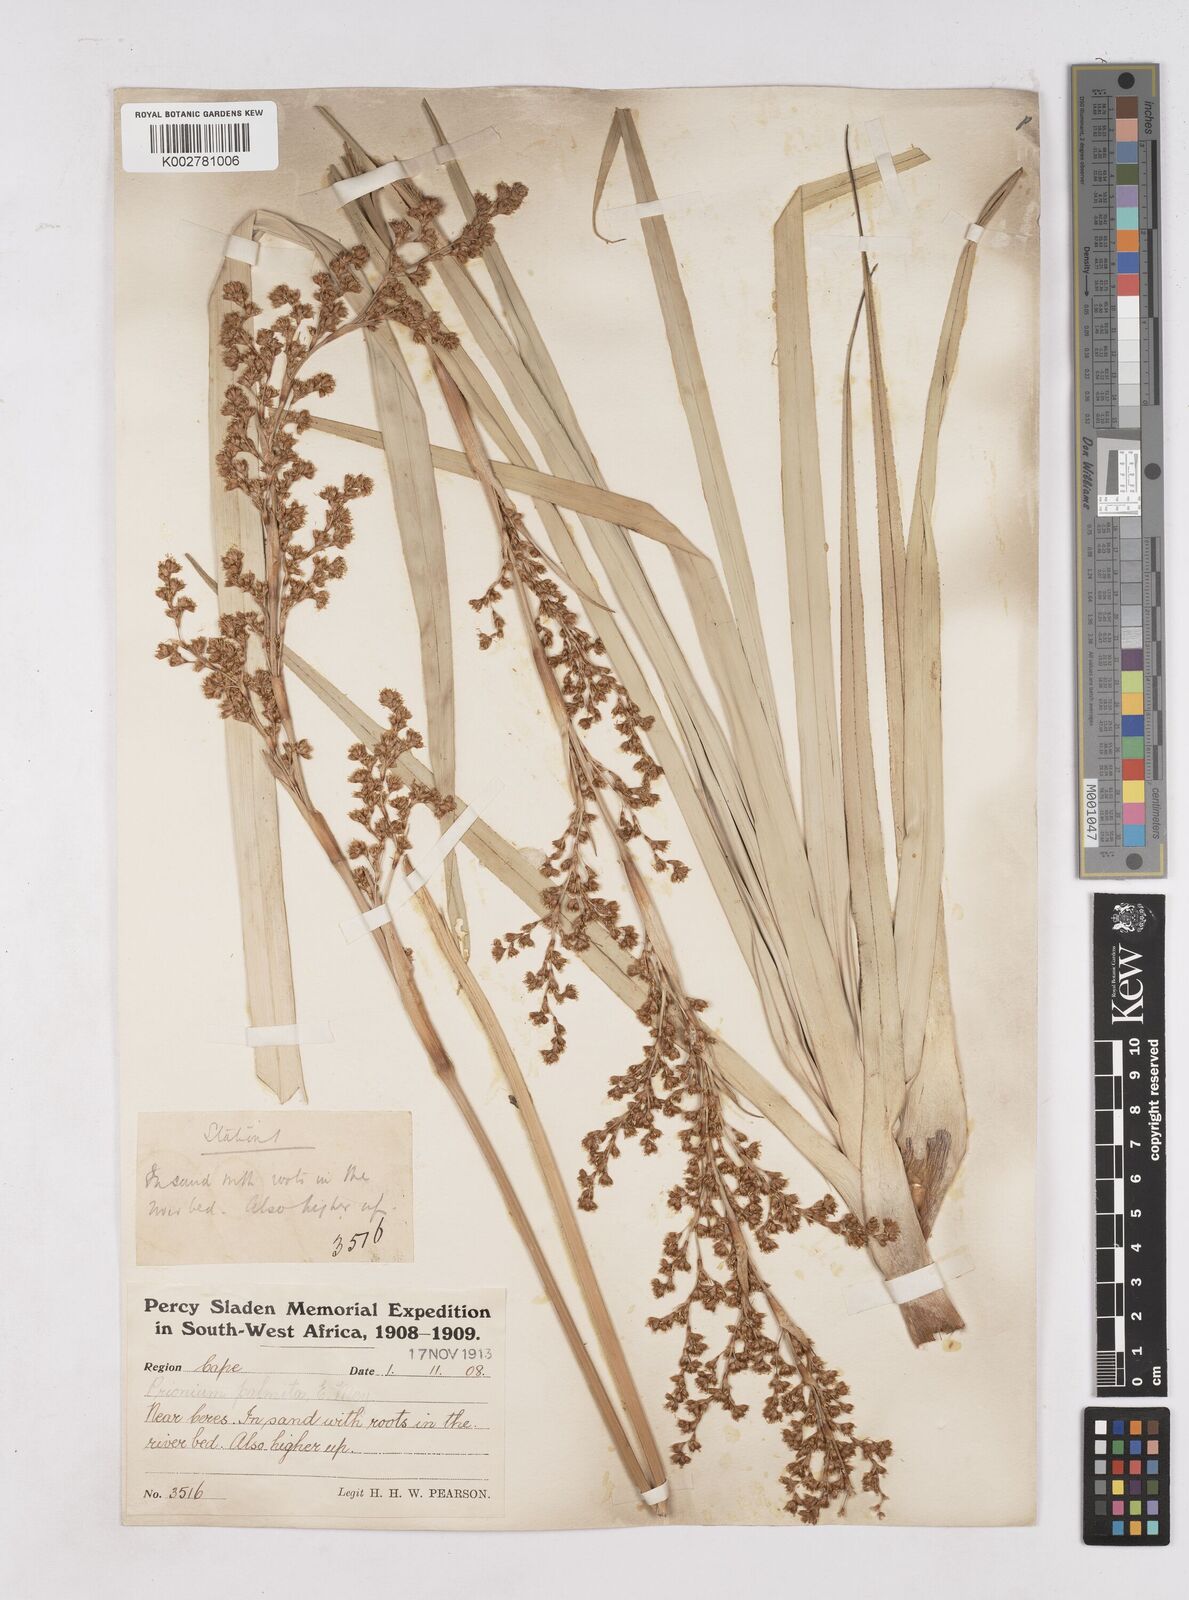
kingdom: Plantae
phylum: Tracheophyta
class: Liliopsida
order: Poales
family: Thurniaceae
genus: Prionium
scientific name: Prionium serratum
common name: Palmiet
